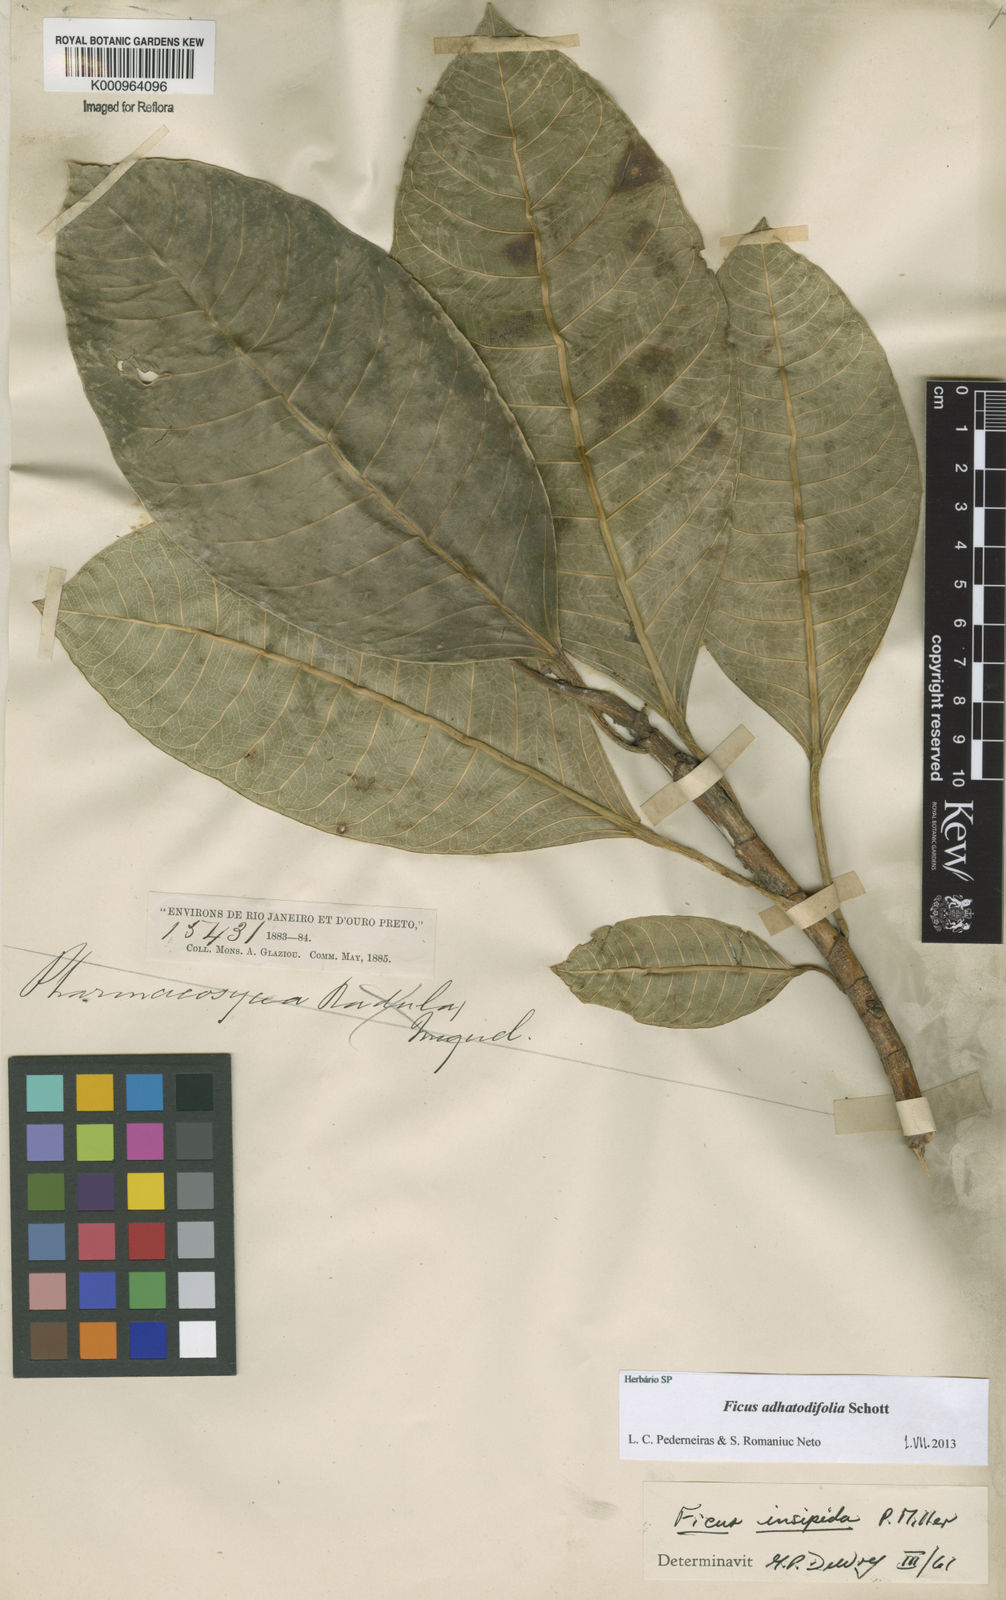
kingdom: Plantae
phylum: Tracheophyta
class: Magnoliopsida
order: Rosales
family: Moraceae
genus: Ficus
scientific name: Ficus
